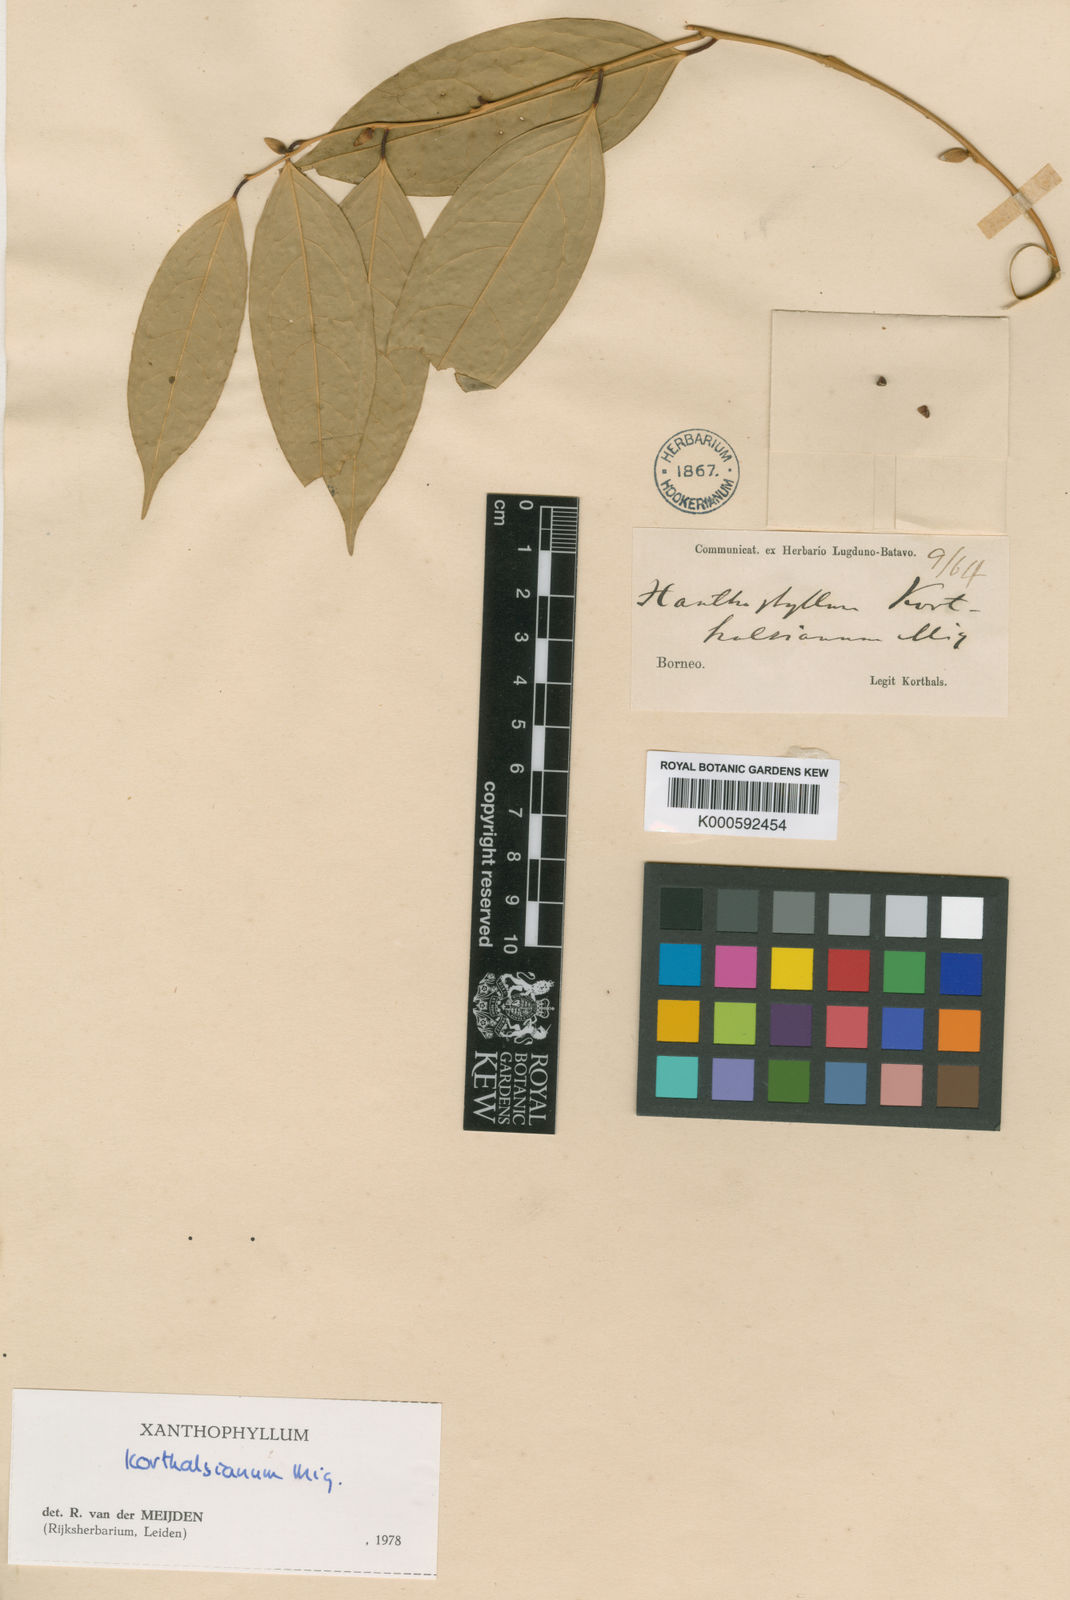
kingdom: Plantae
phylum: Tracheophyta
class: Magnoliopsida
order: Fabales
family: Polygalaceae
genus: Xanthophyllum
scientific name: Xanthophyllum korthalsianum
